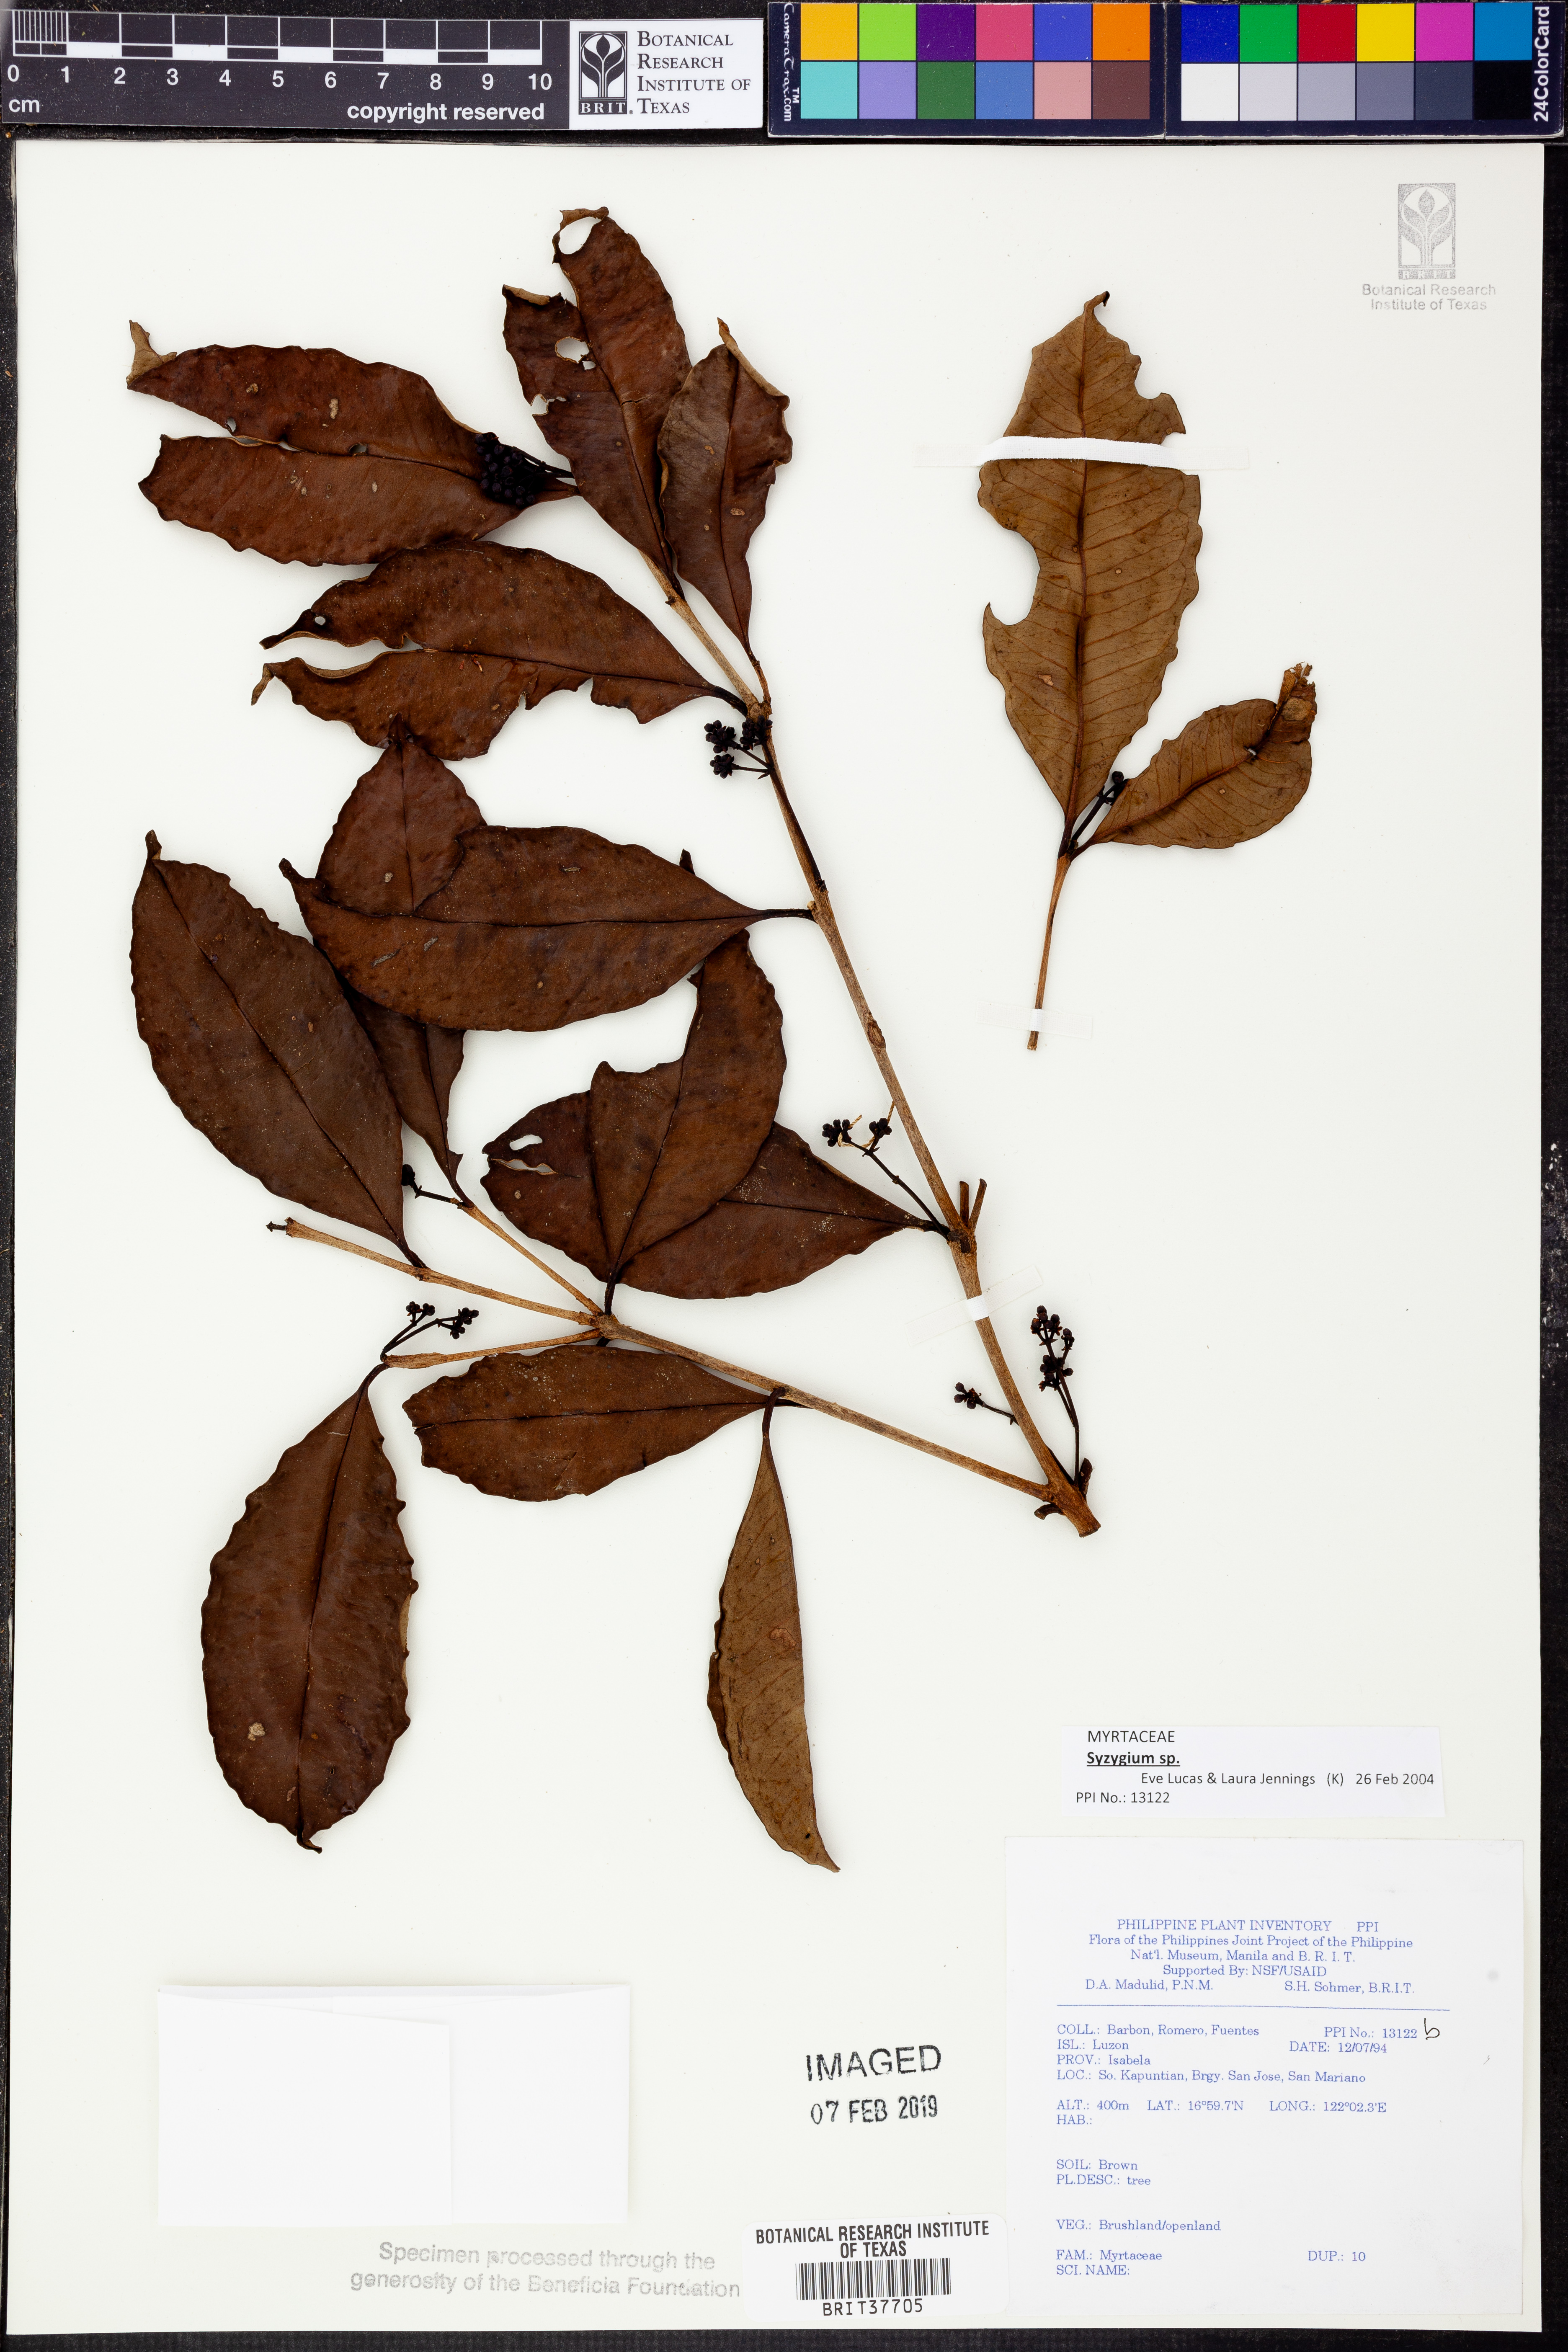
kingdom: Plantae
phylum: Tracheophyta
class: Magnoliopsida
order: Myrtales
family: Myrtaceae
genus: Syzygium
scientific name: Syzygium
